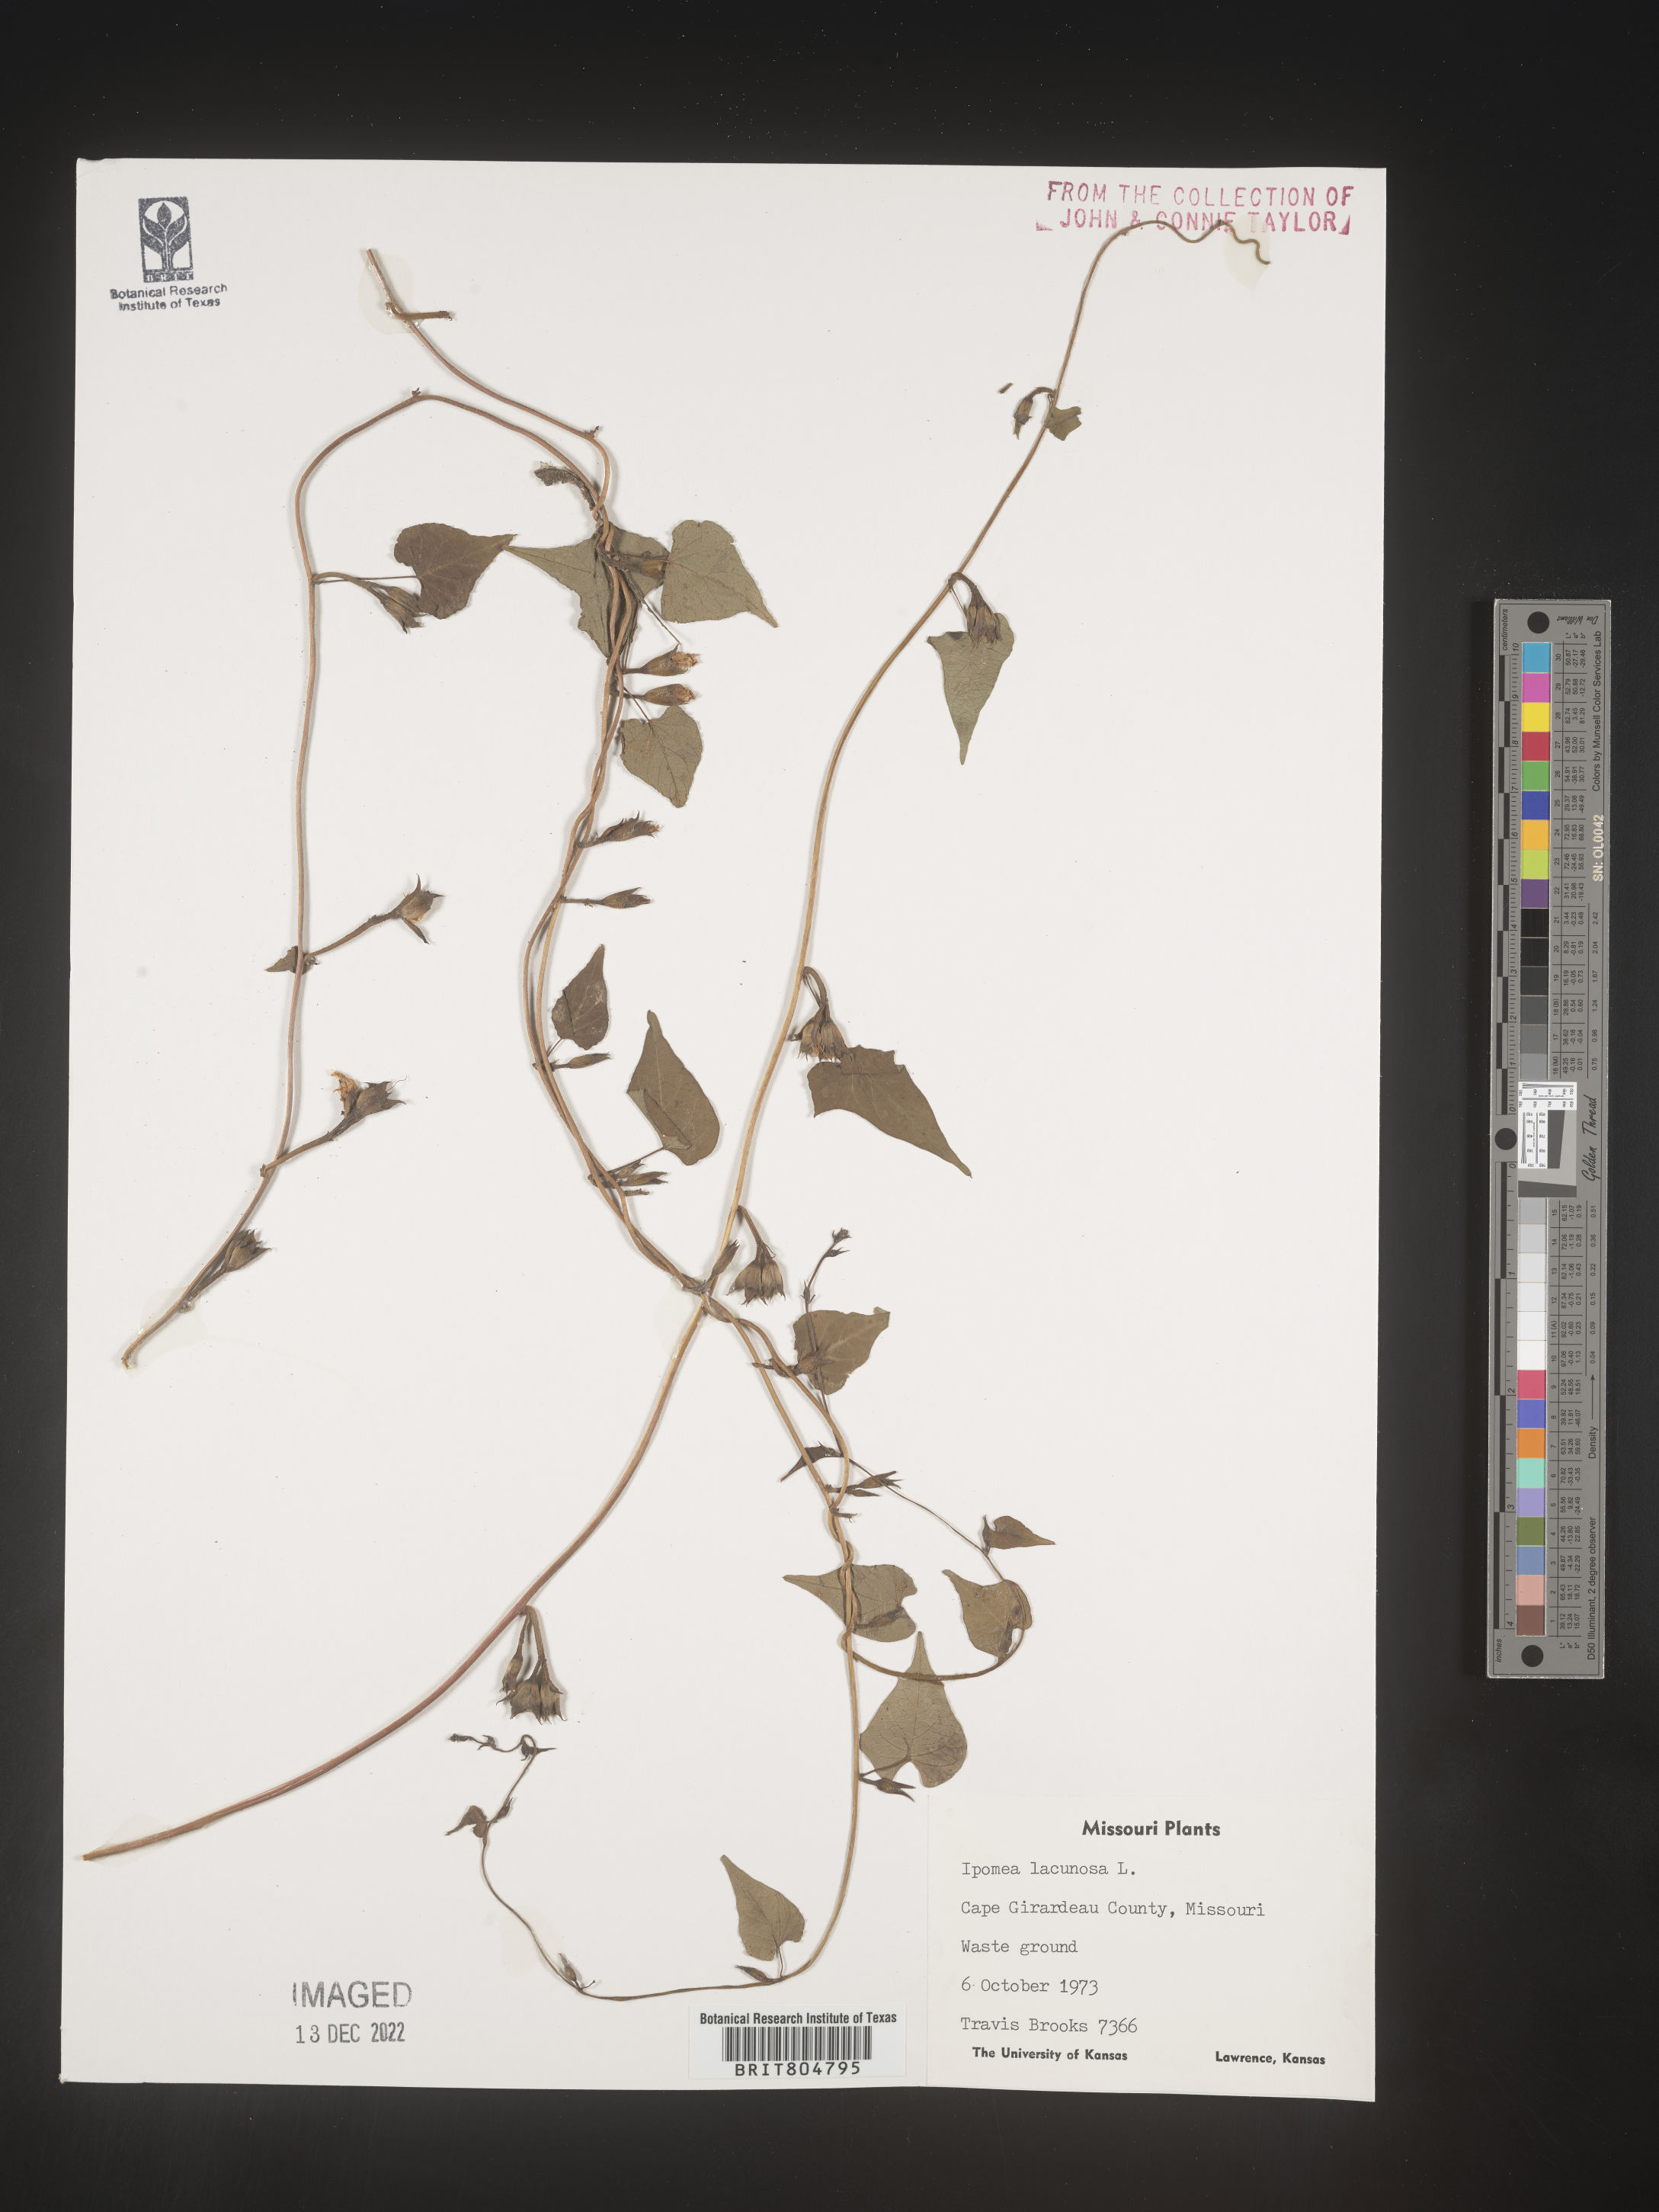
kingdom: Plantae
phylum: Tracheophyta
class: Magnoliopsida
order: Solanales
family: Convolvulaceae
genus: Ipomoea
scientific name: Ipomoea lacunosa
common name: White morning-glory
